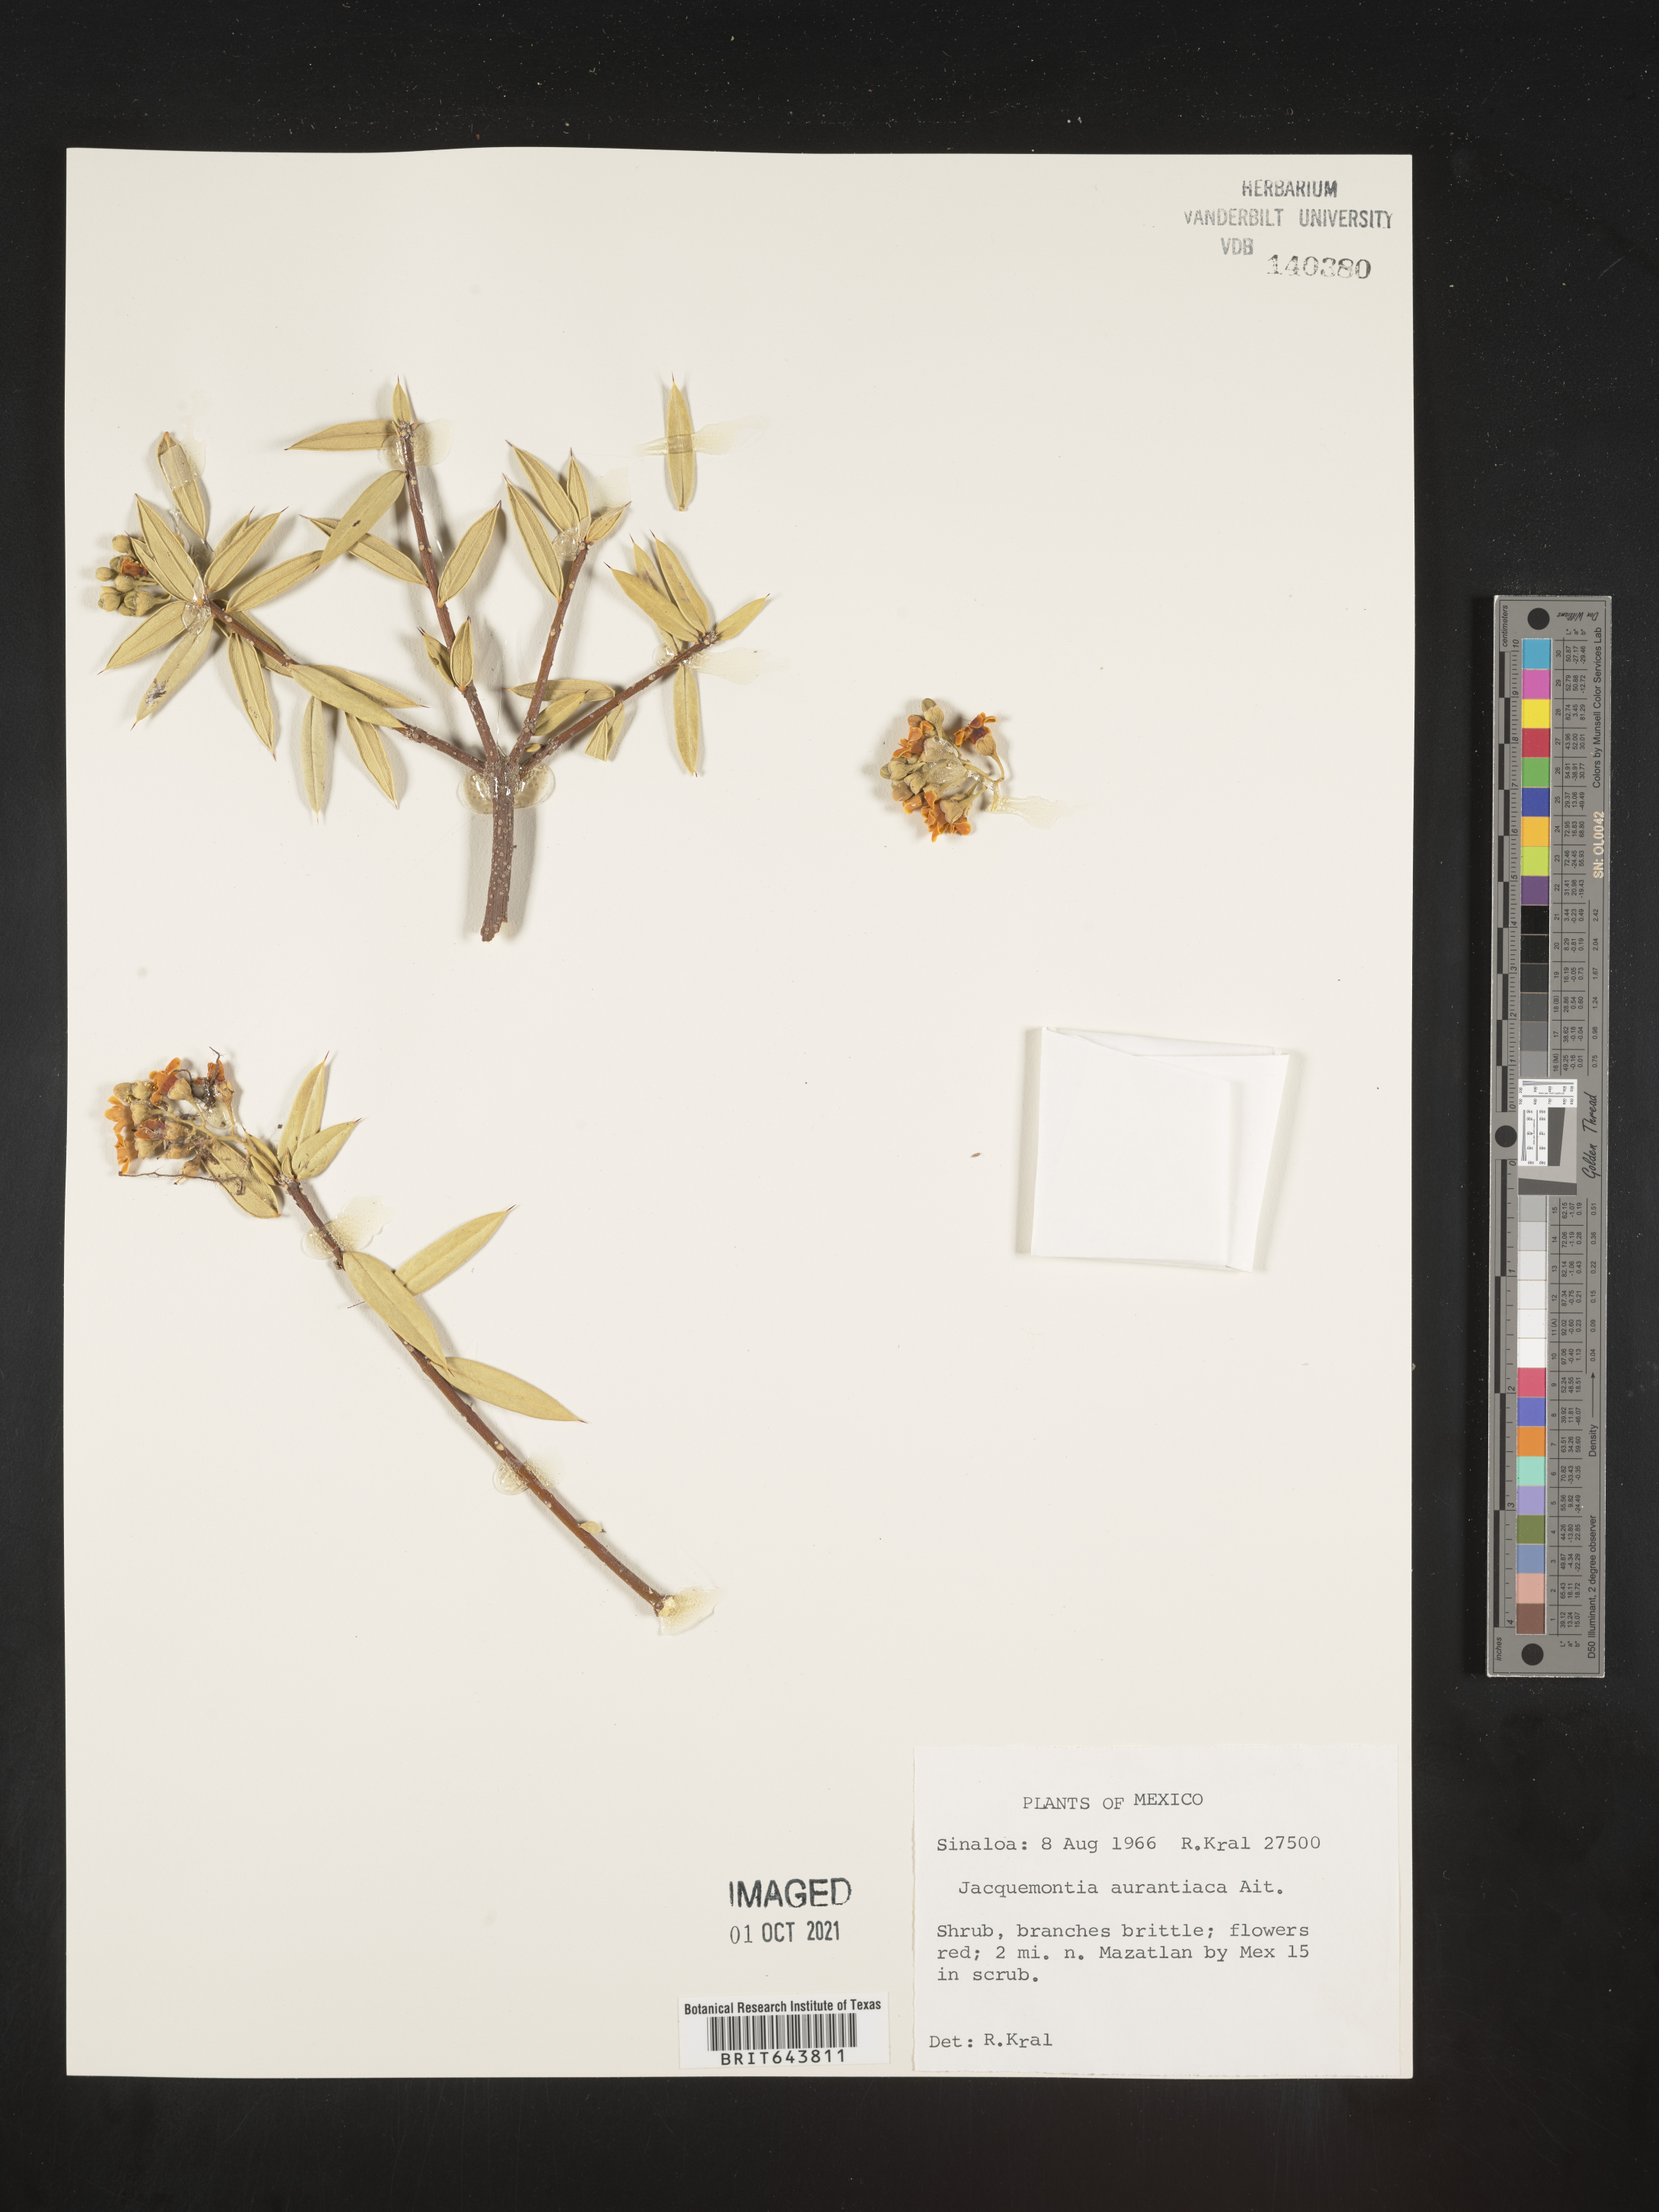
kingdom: Plantae
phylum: Tracheophyta
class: Magnoliopsida
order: Ericales
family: Primulaceae
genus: Jacquinia
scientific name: Jacquinia
